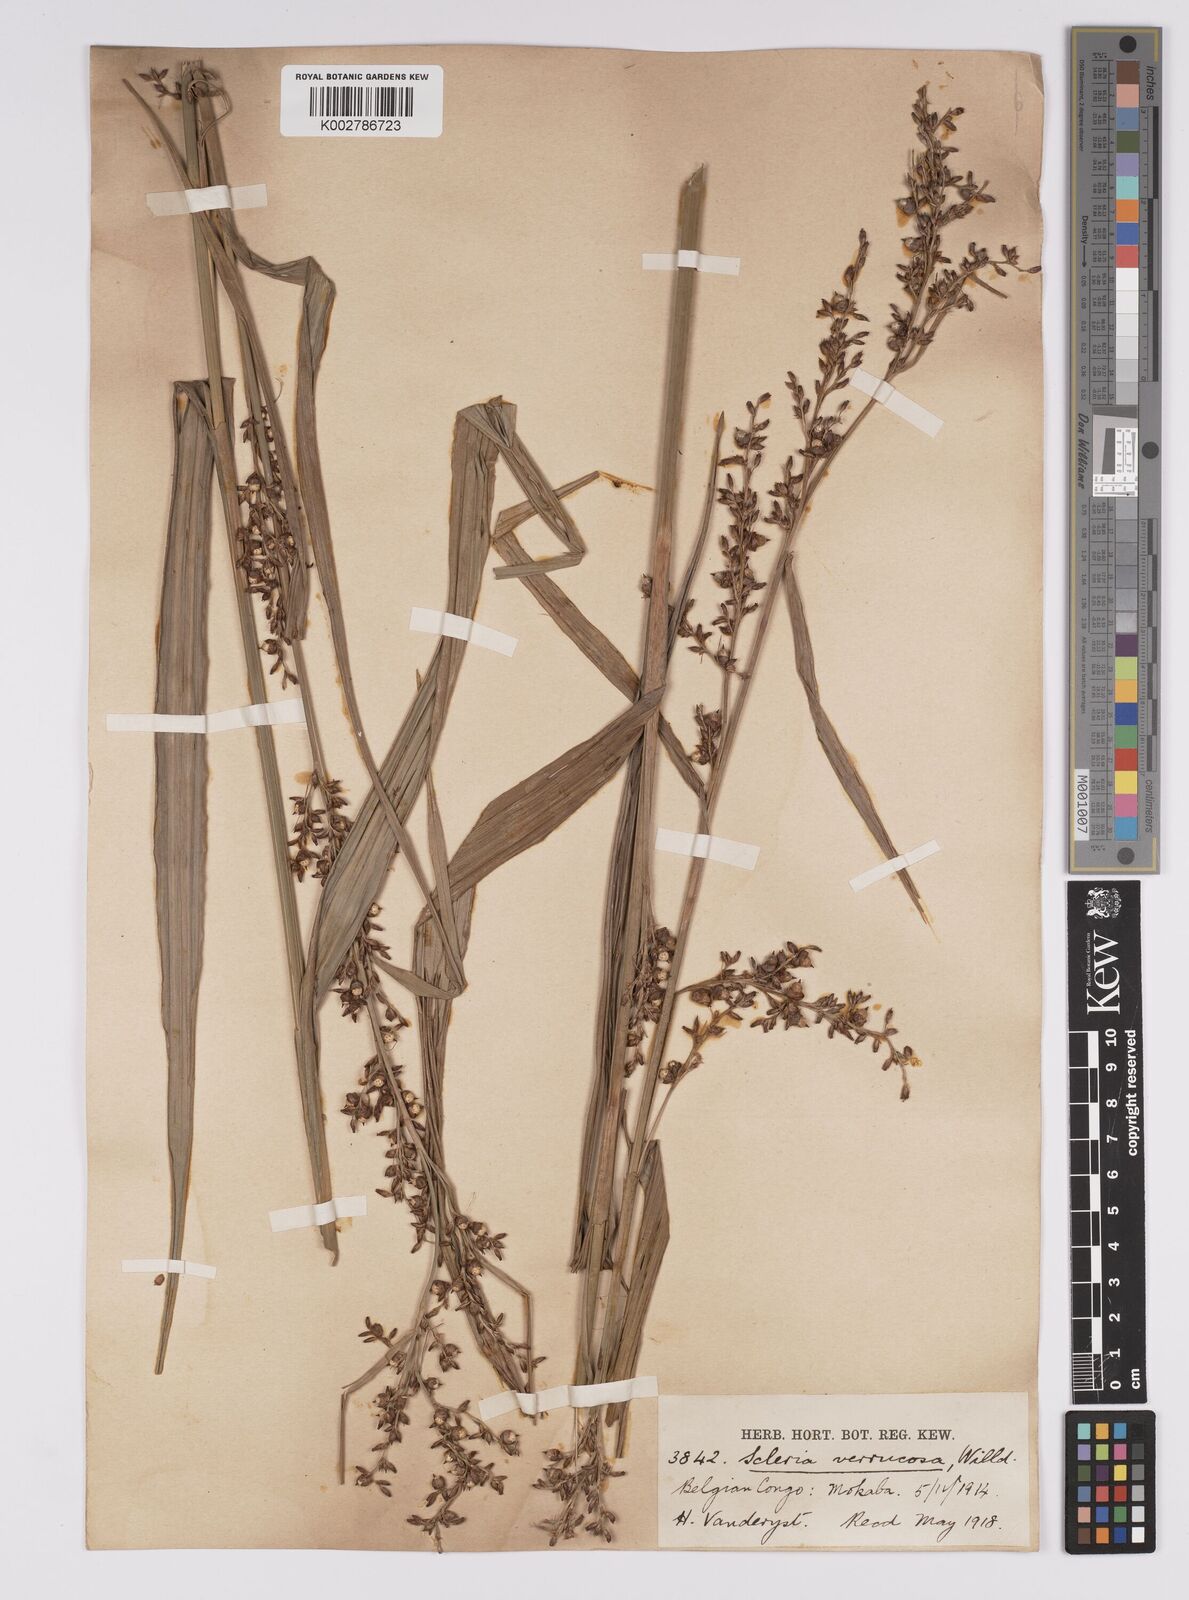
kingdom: Plantae
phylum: Tracheophyta
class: Liliopsida
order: Poales
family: Cyperaceae
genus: Scleria
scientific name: Scleria verrucosa
